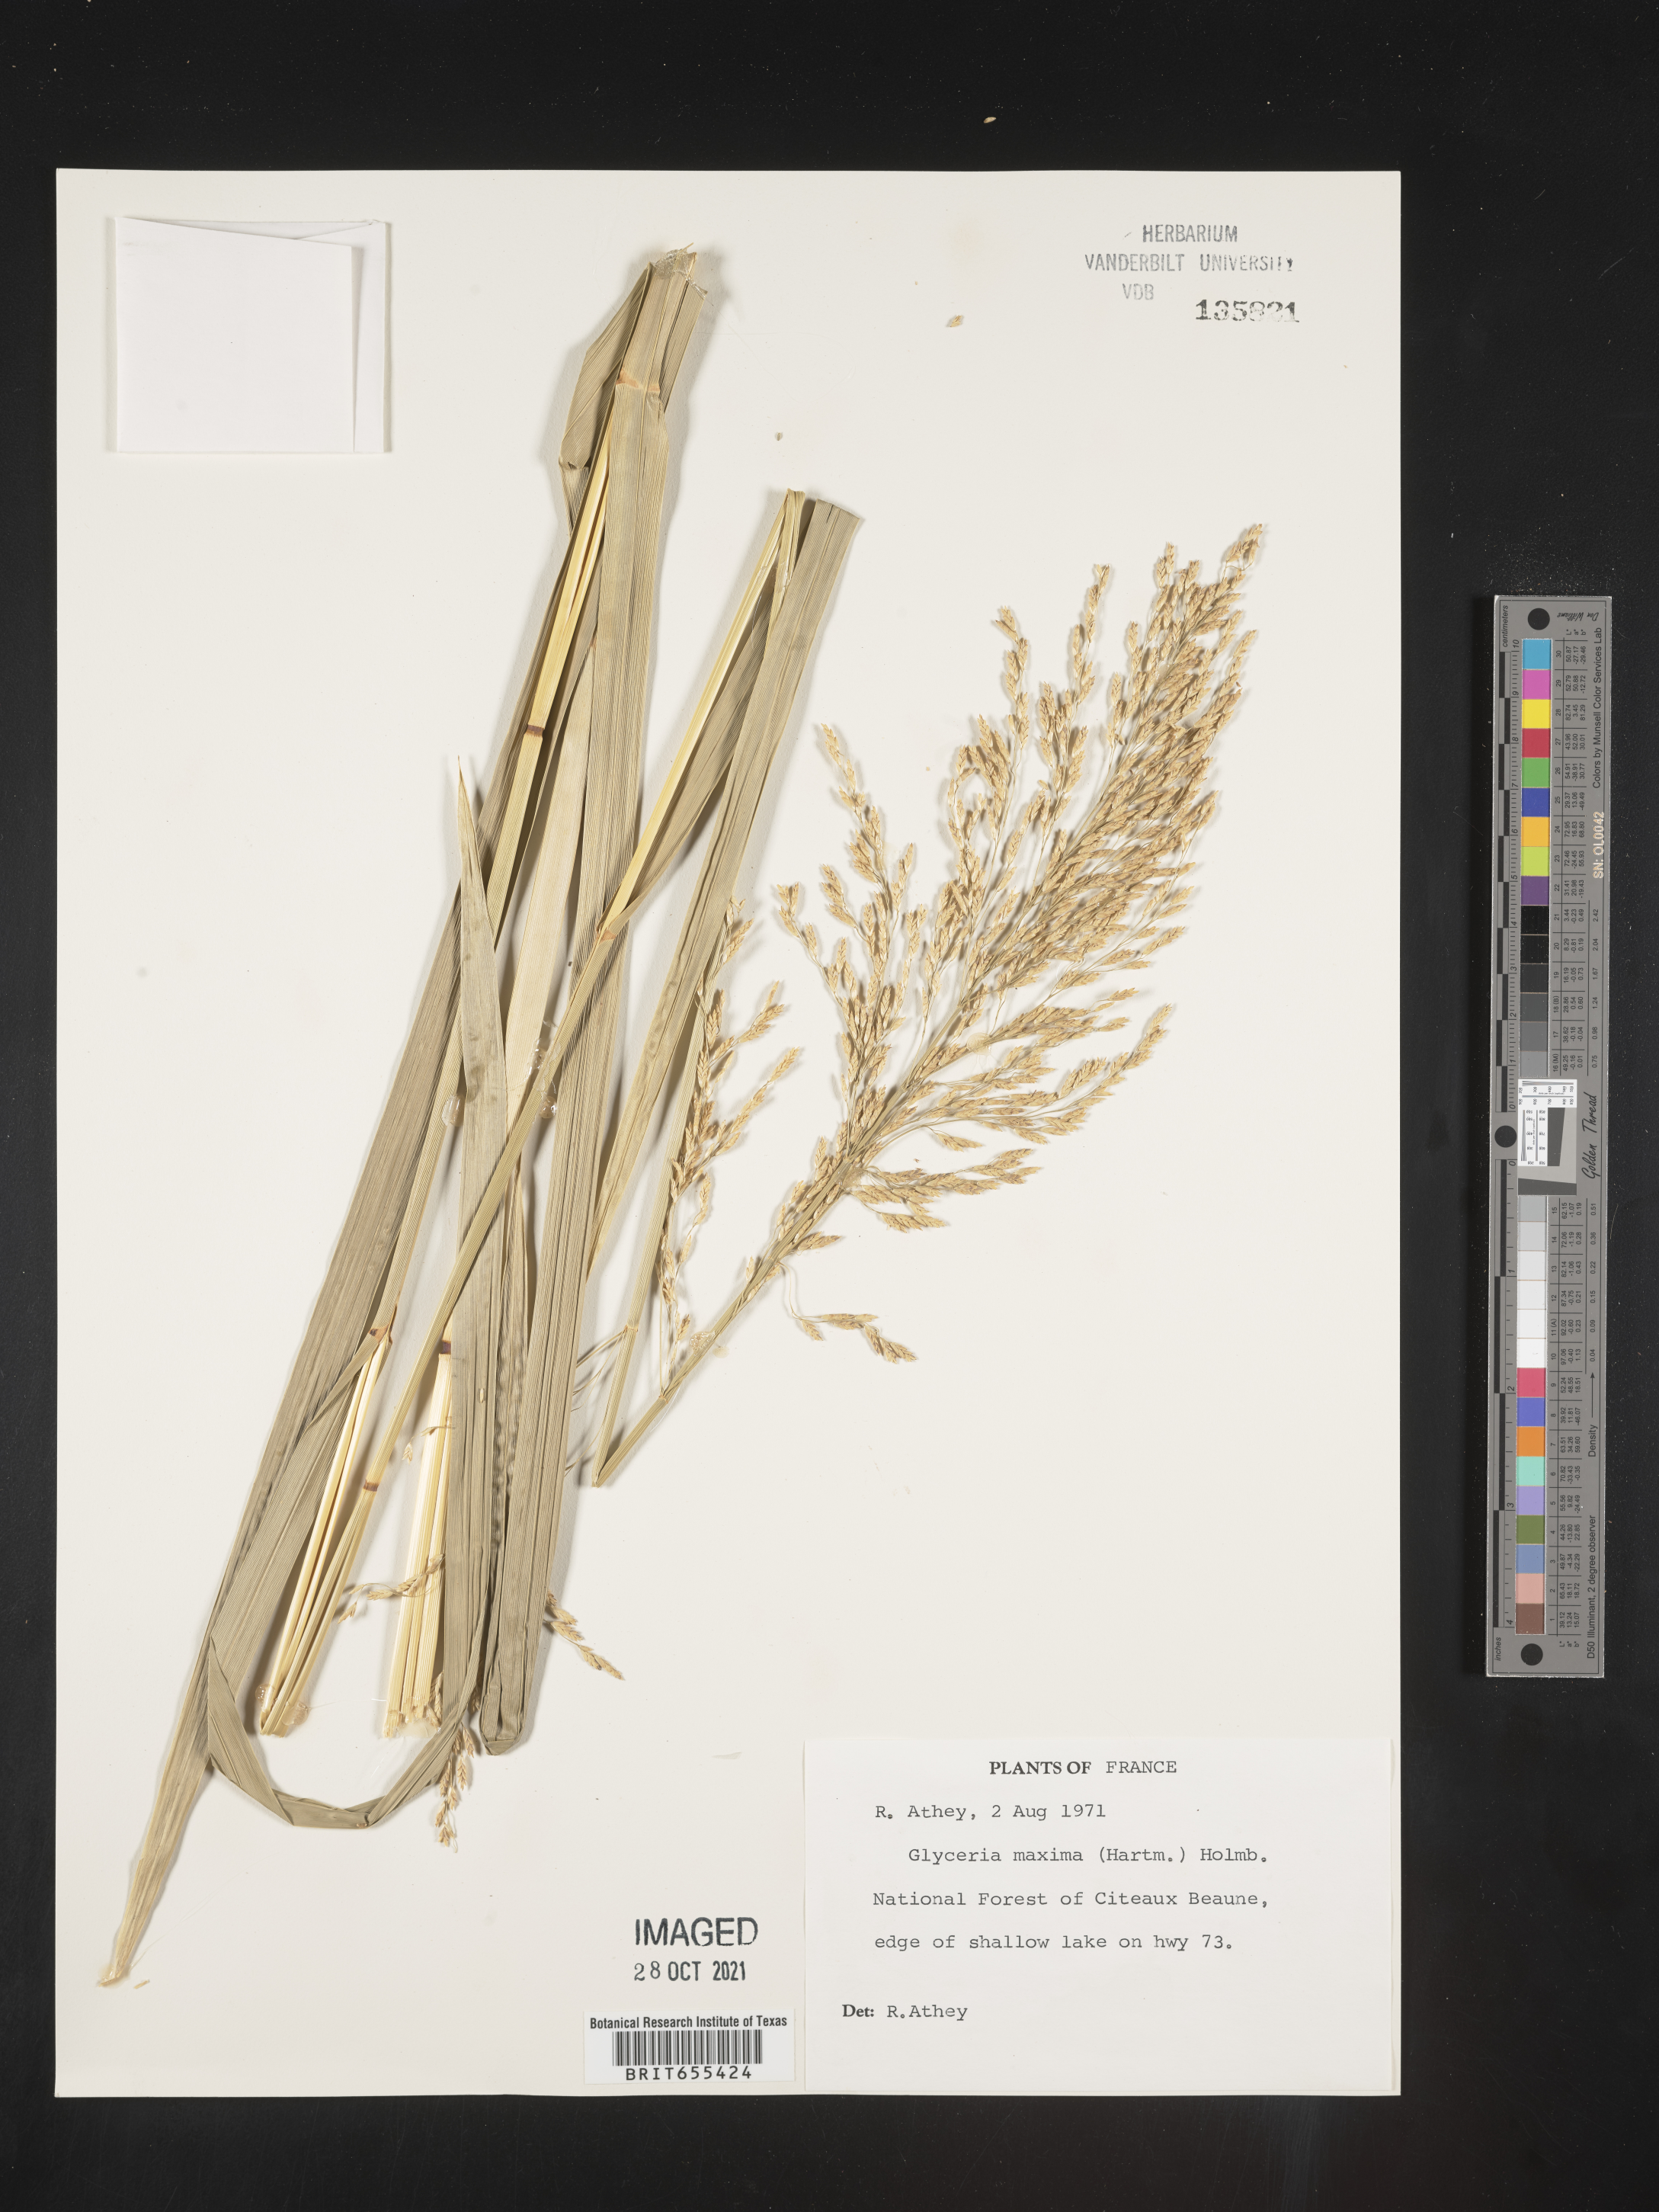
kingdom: Plantae
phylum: Tracheophyta
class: Liliopsida
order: Poales
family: Poaceae
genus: Glyceria
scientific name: Glyceria
